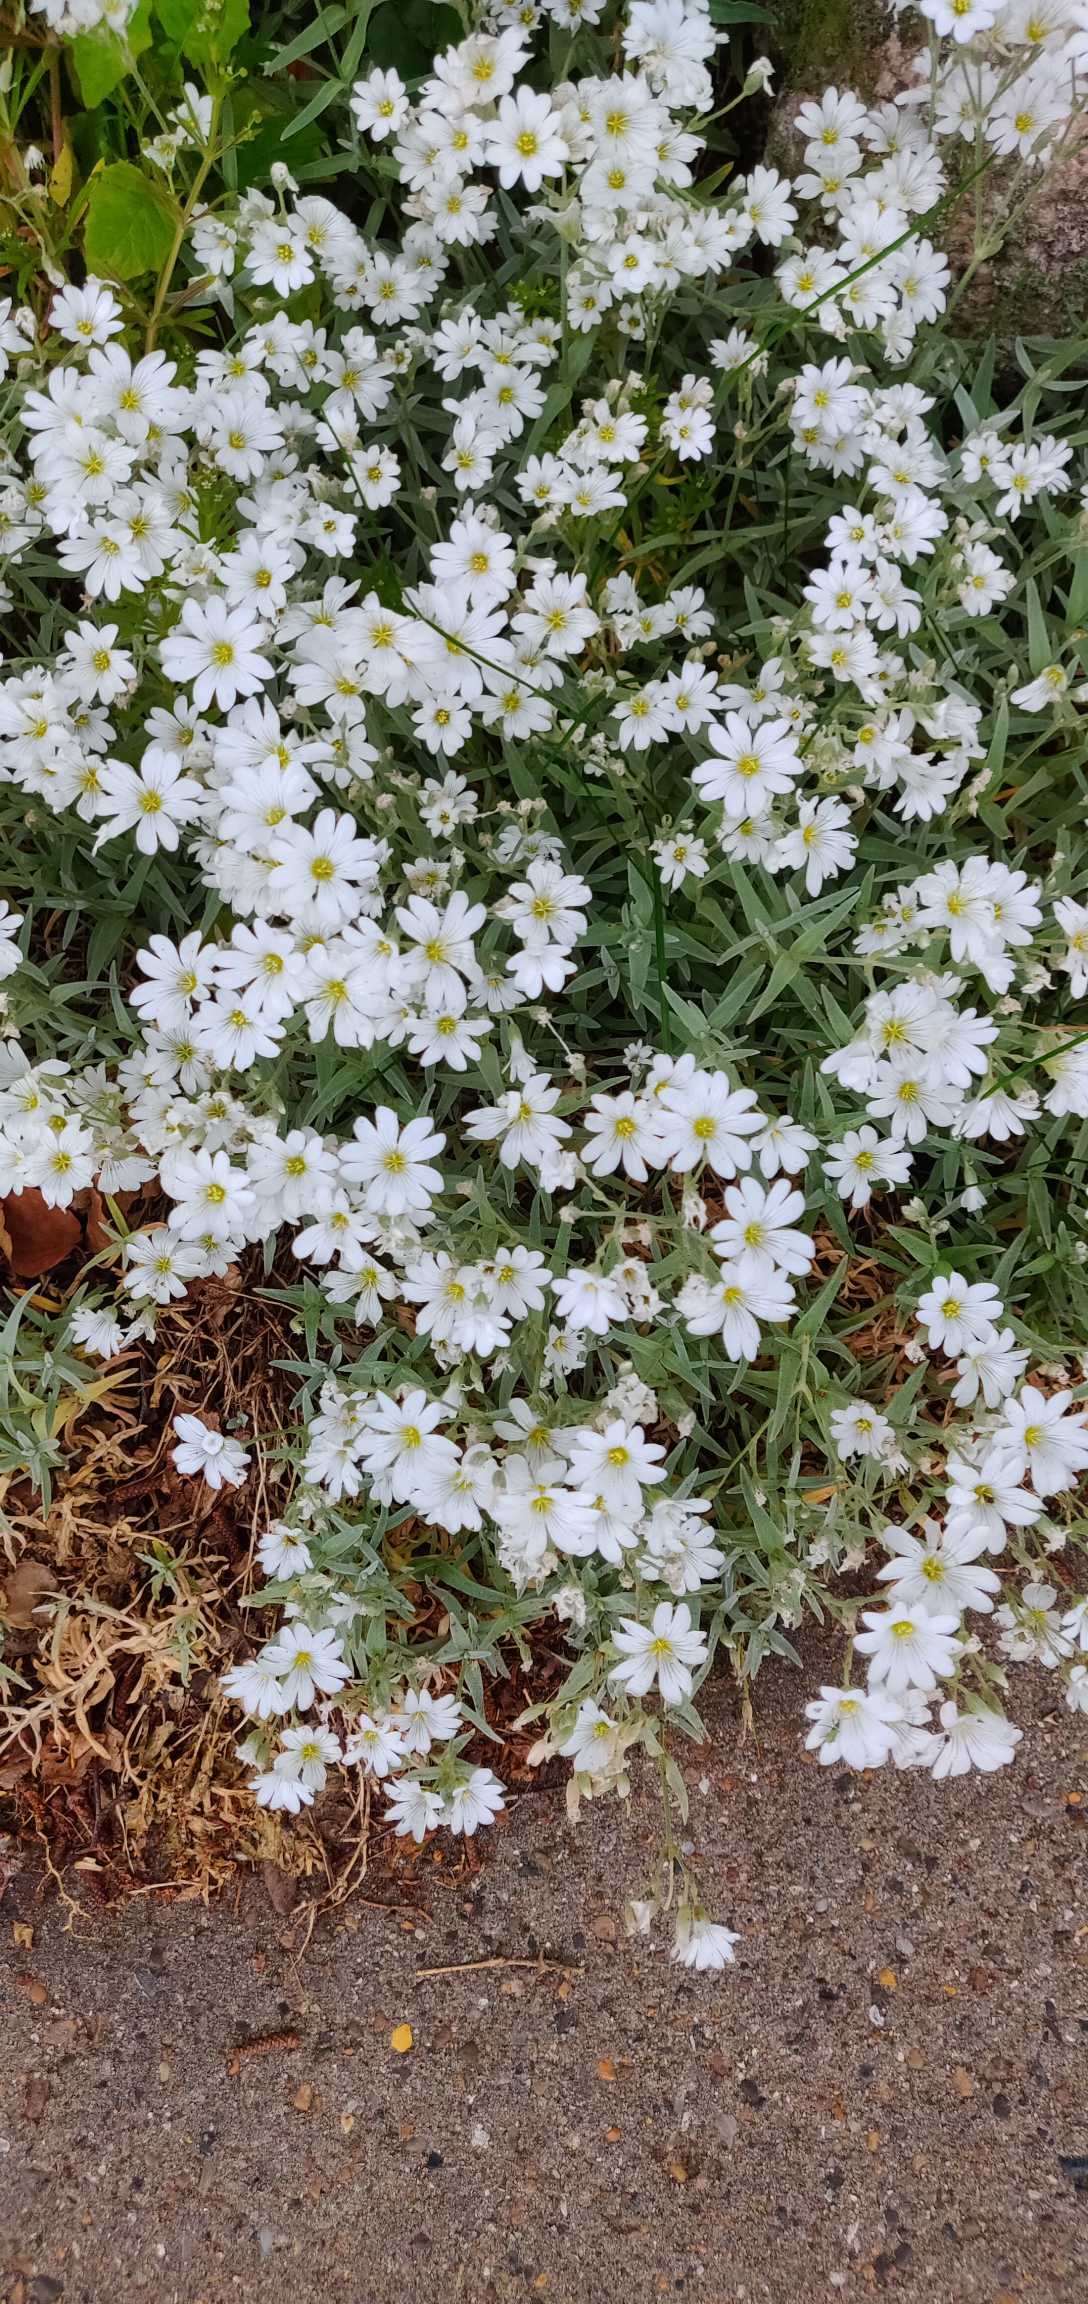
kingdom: Plantae
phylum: Tracheophyta
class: Magnoliopsida
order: Caryophyllales
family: Caryophyllaceae
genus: Cerastium
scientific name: Cerastium tomentosum
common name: Filtet hønsetarm
